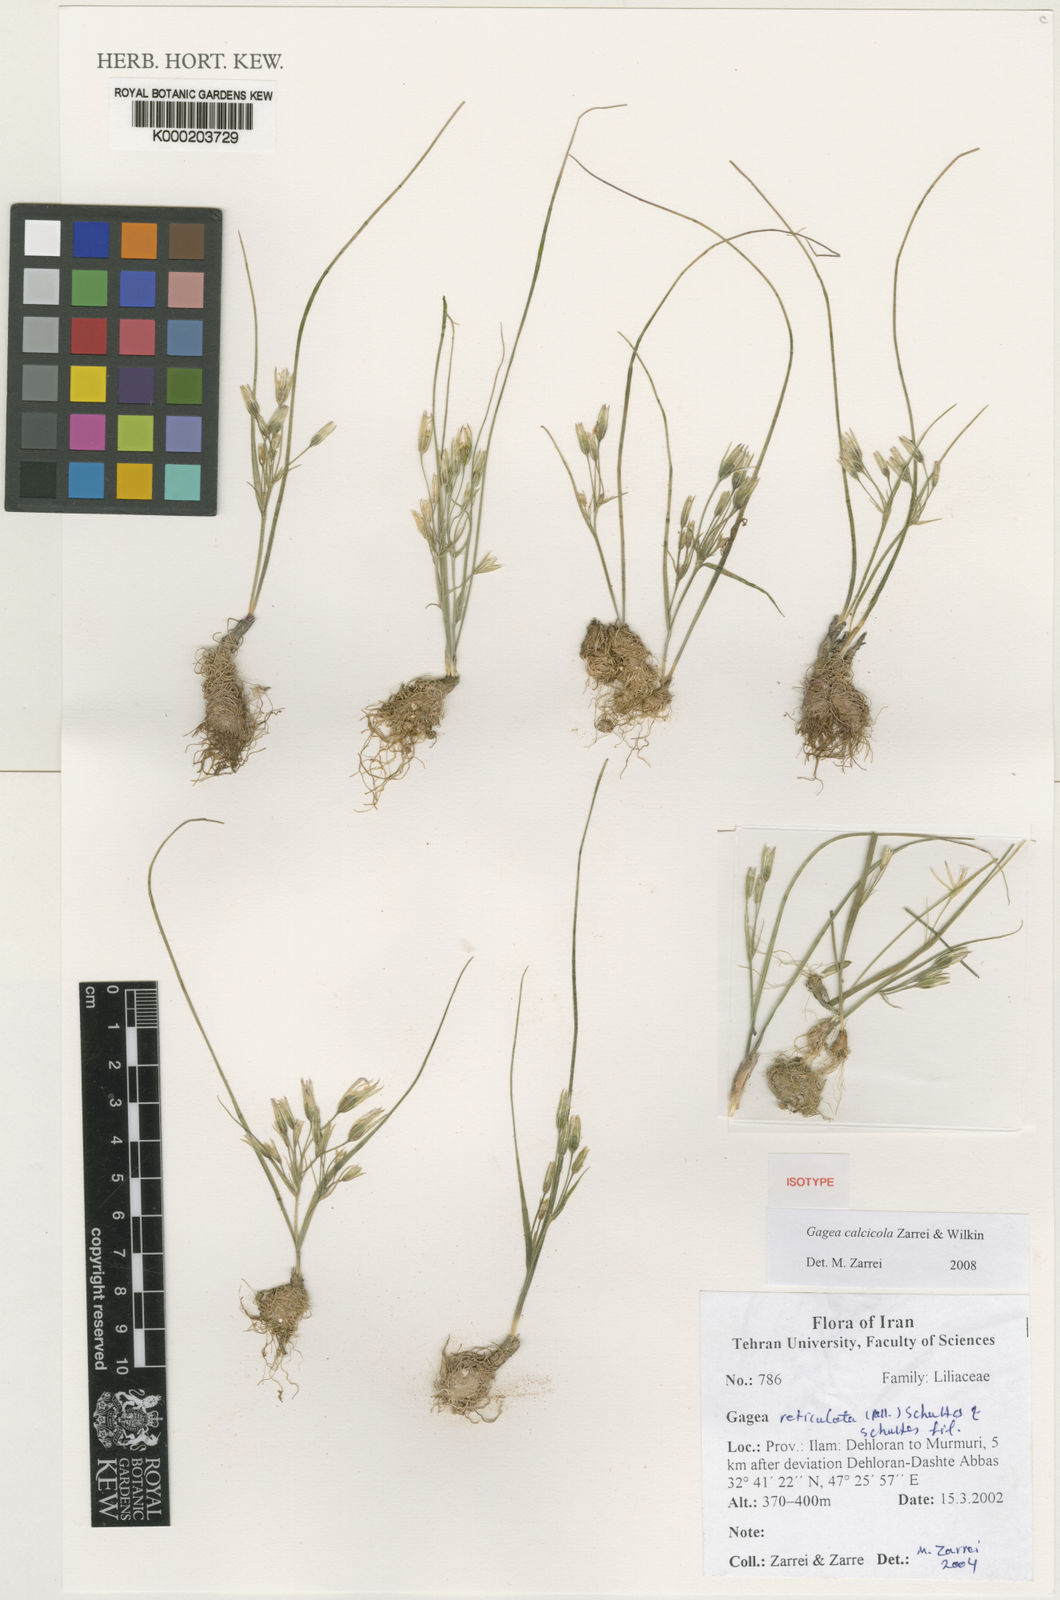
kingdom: Plantae
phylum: Tracheophyta
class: Liliopsida
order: Liliales
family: Liliaceae
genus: Gagea
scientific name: Gagea calcicola
